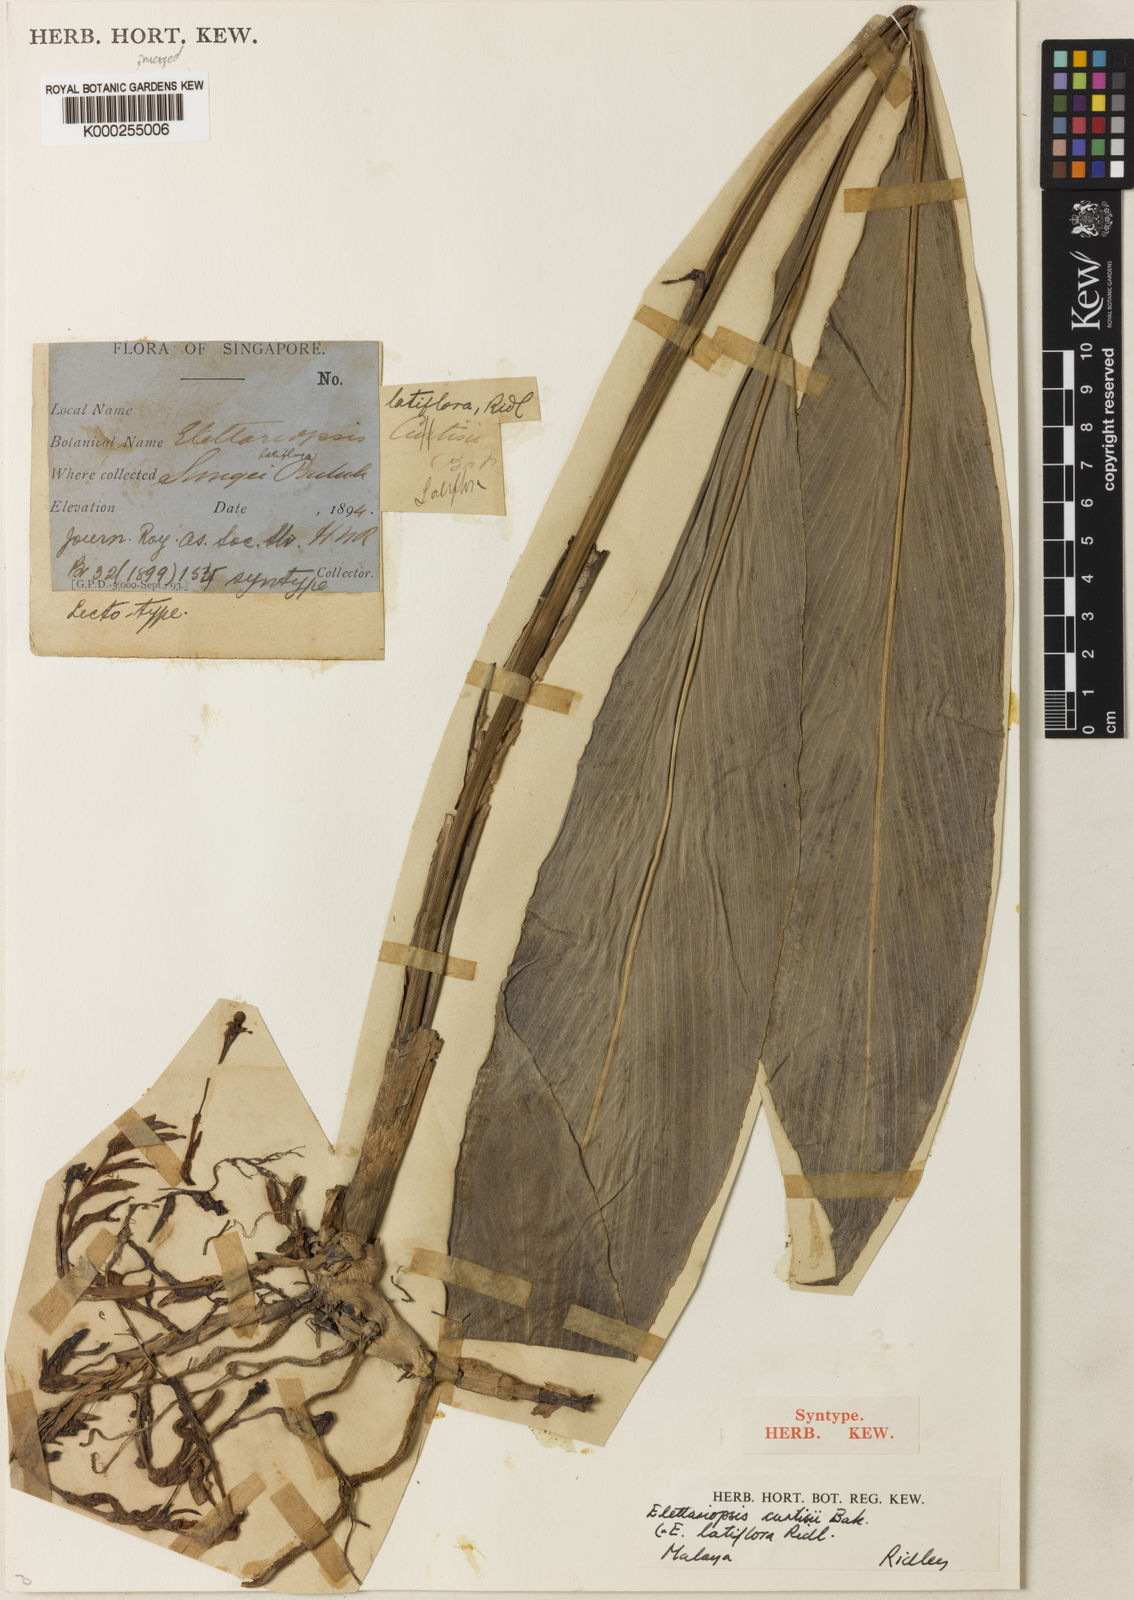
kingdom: Plantae
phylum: Tracheophyta
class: Liliopsida
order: Zingiberales
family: Zingiberaceae
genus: Amomum
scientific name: Amomum curtisii
